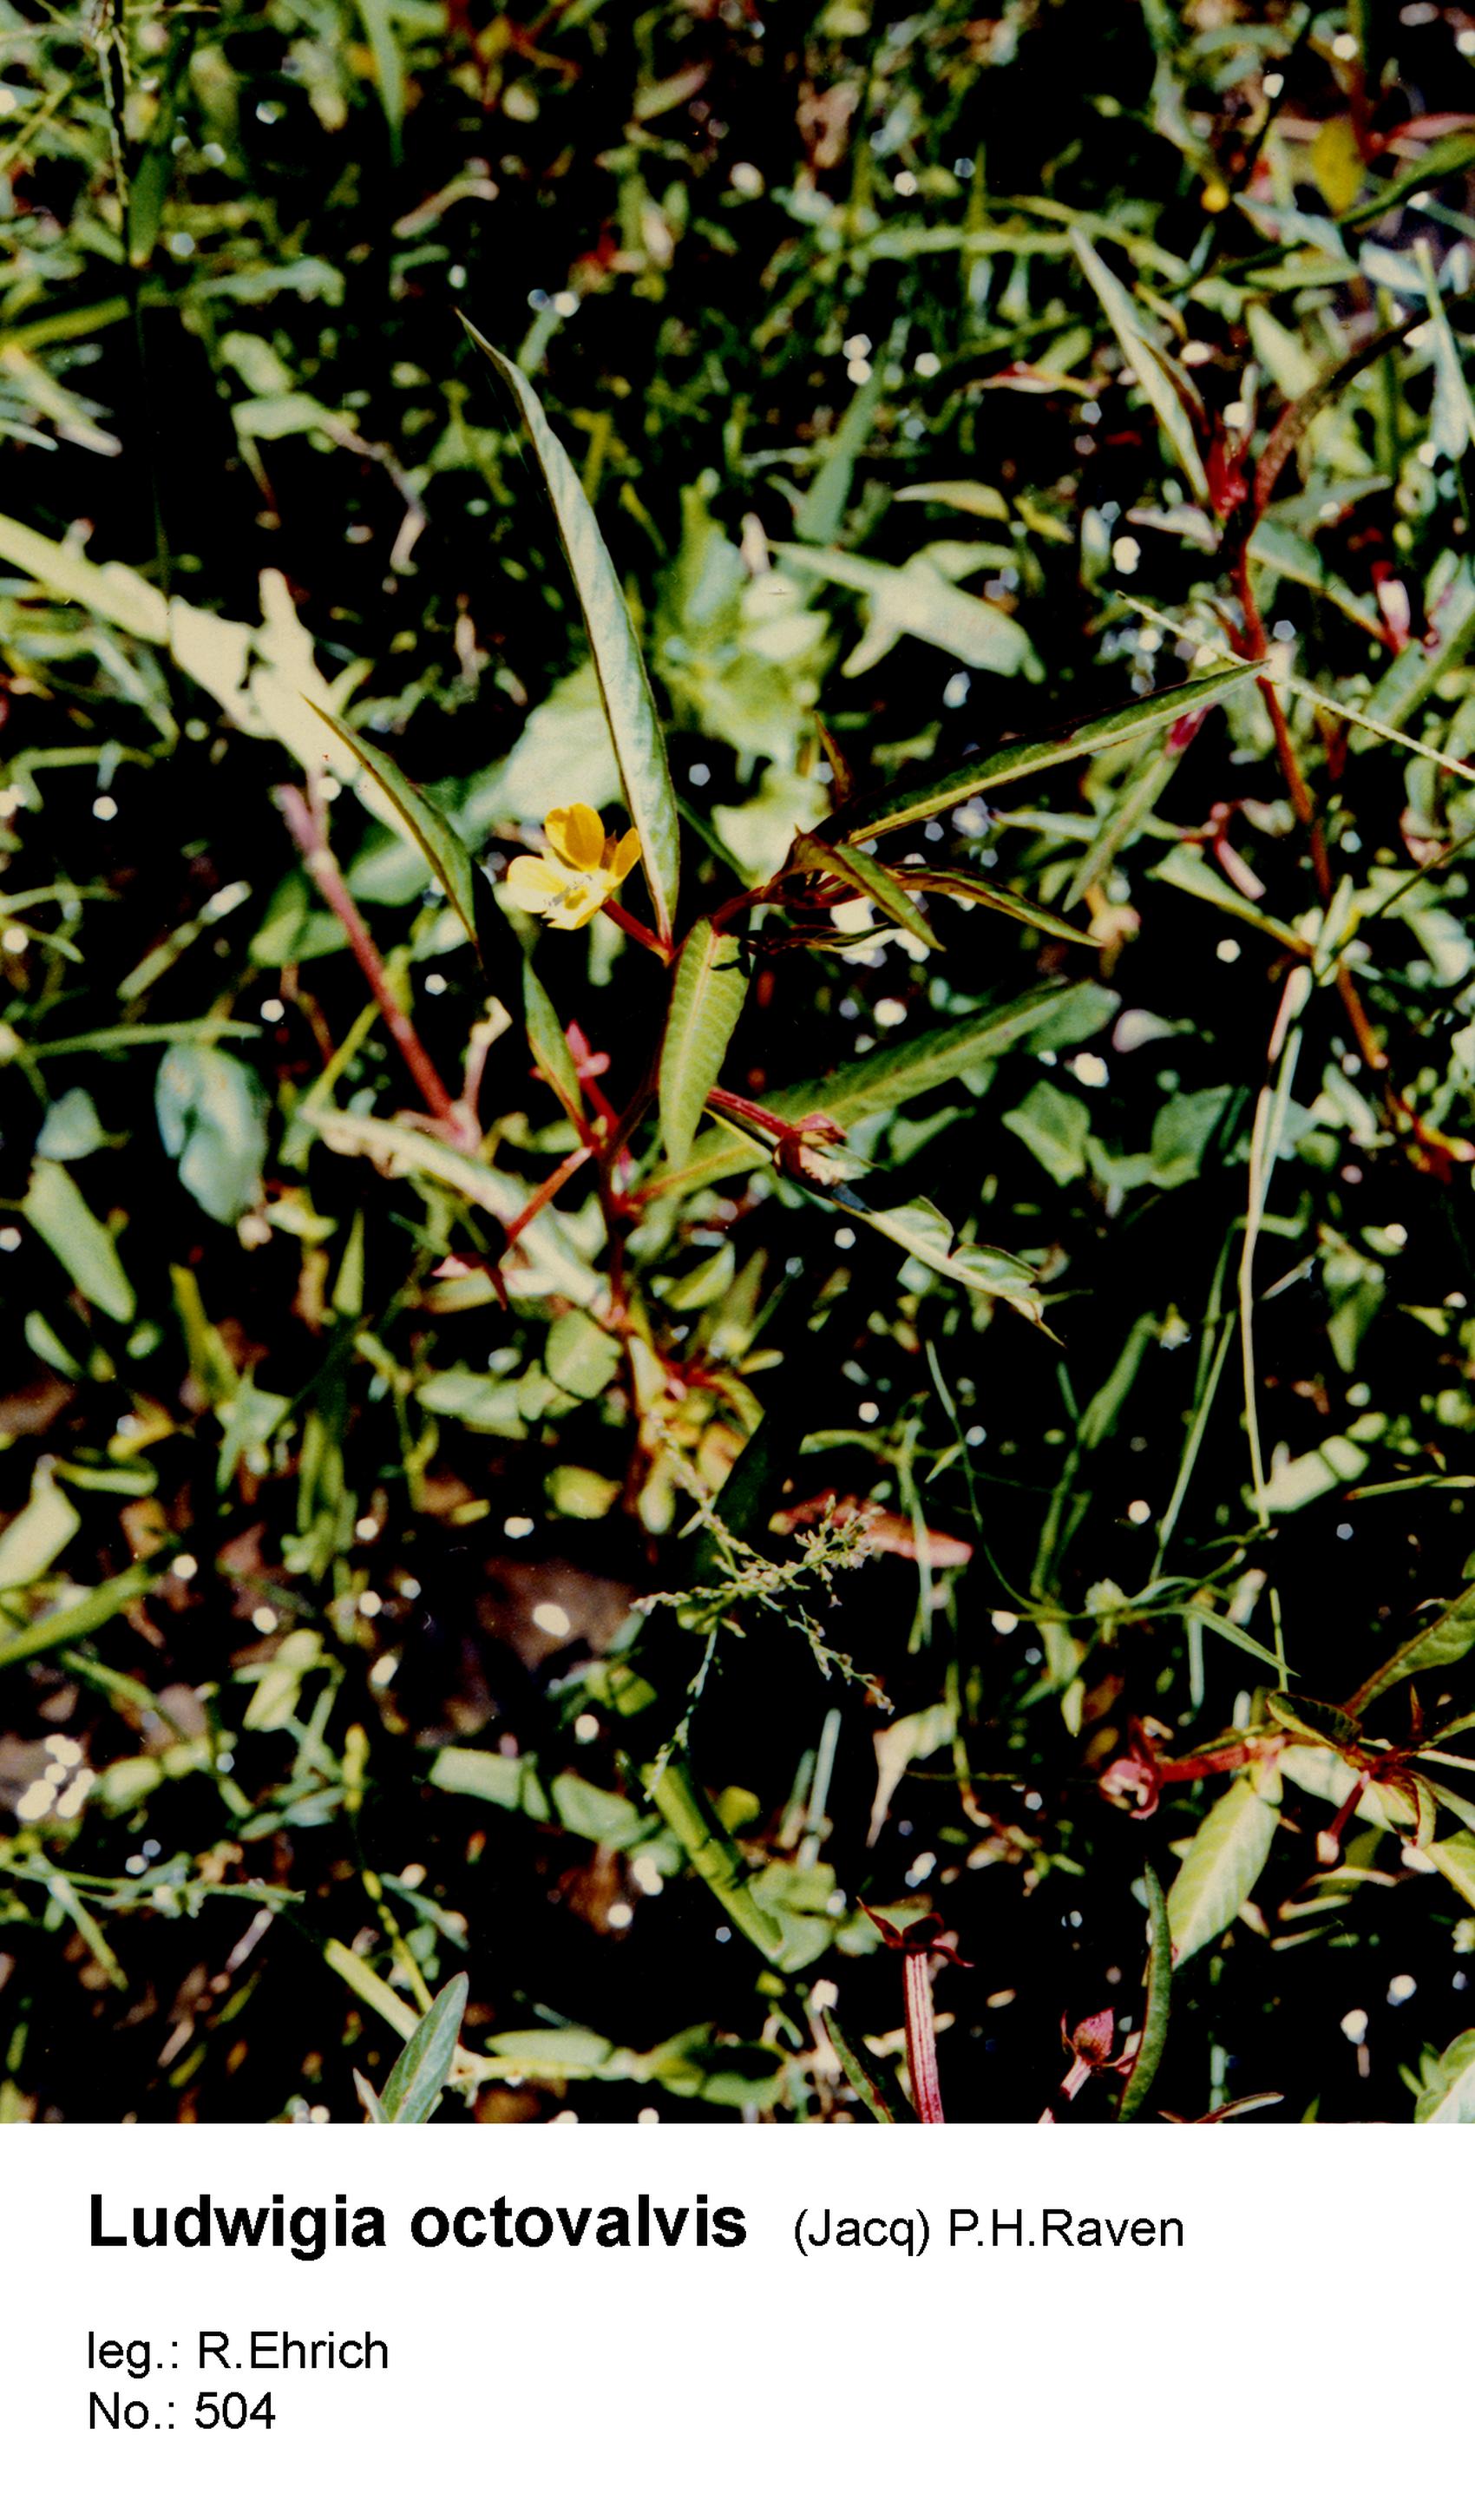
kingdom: Plantae
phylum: Tracheophyta
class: Magnoliopsida
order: Myrtales
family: Onagraceae
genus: Ludwigia
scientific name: Ludwigia octovalvis
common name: Water-primrose
